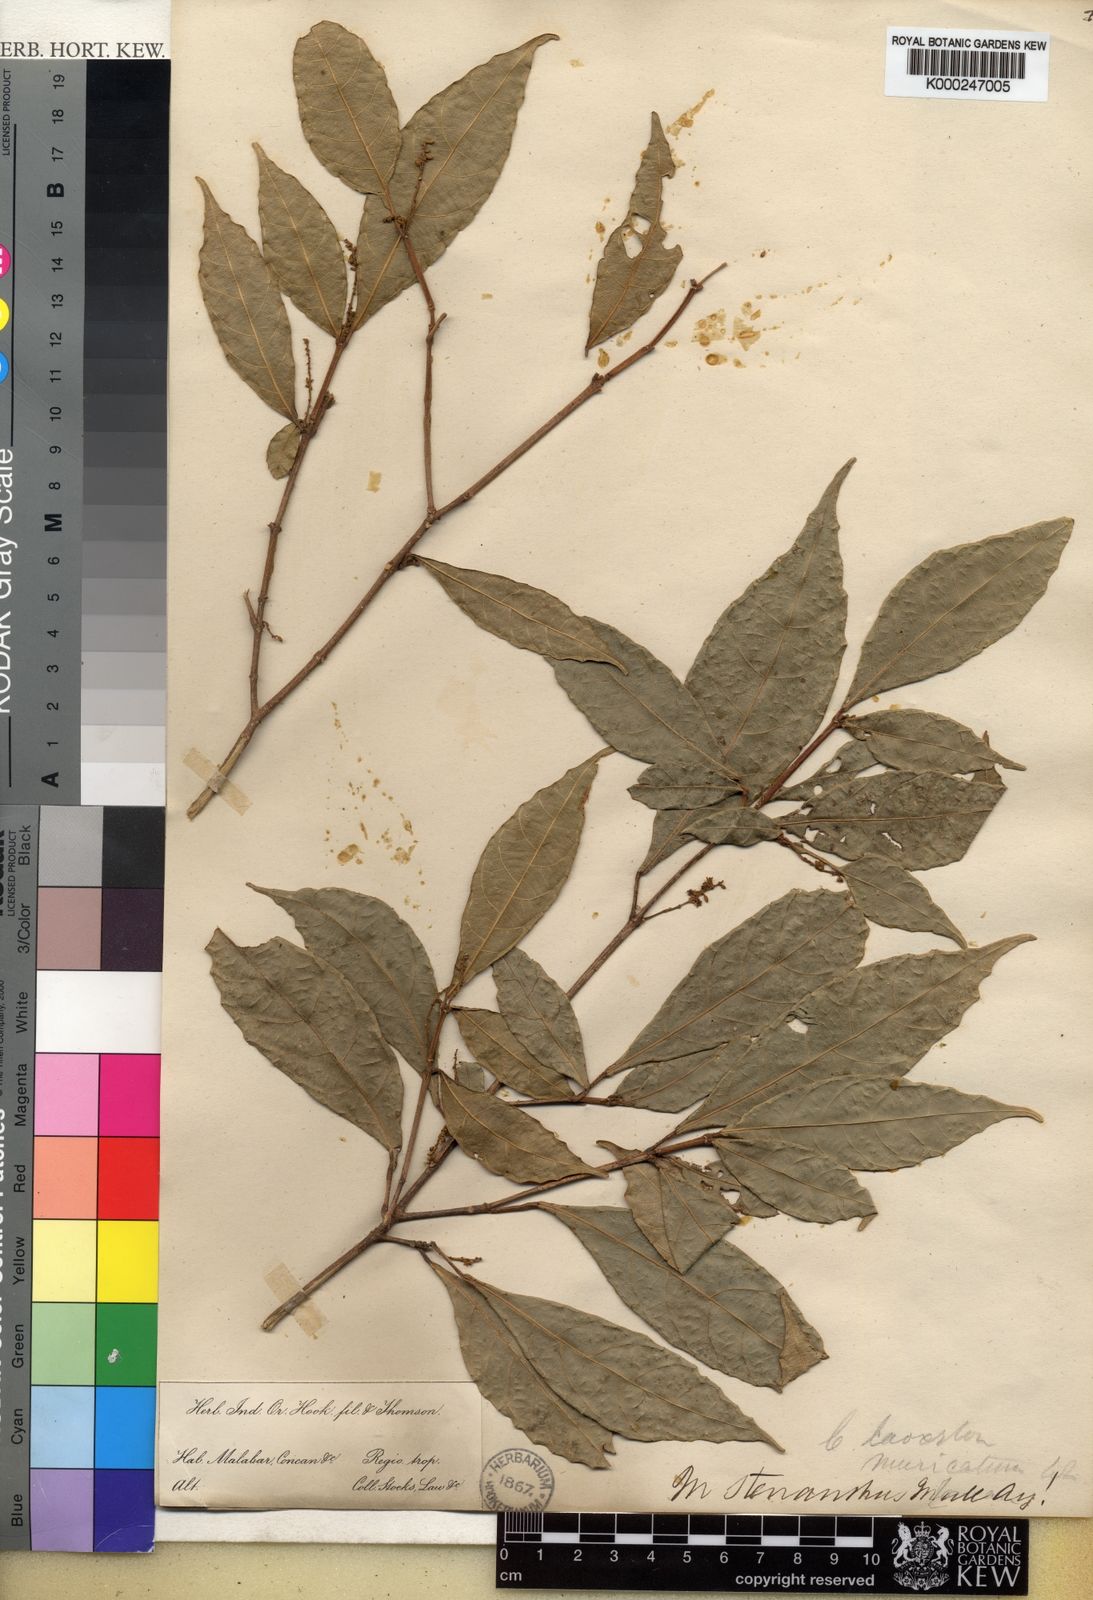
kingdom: Plantae
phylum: Tracheophyta
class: Magnoliopsida
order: Malpighiales
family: Euphorbiaceae
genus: Mallotus
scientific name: Mallotus resinosus
